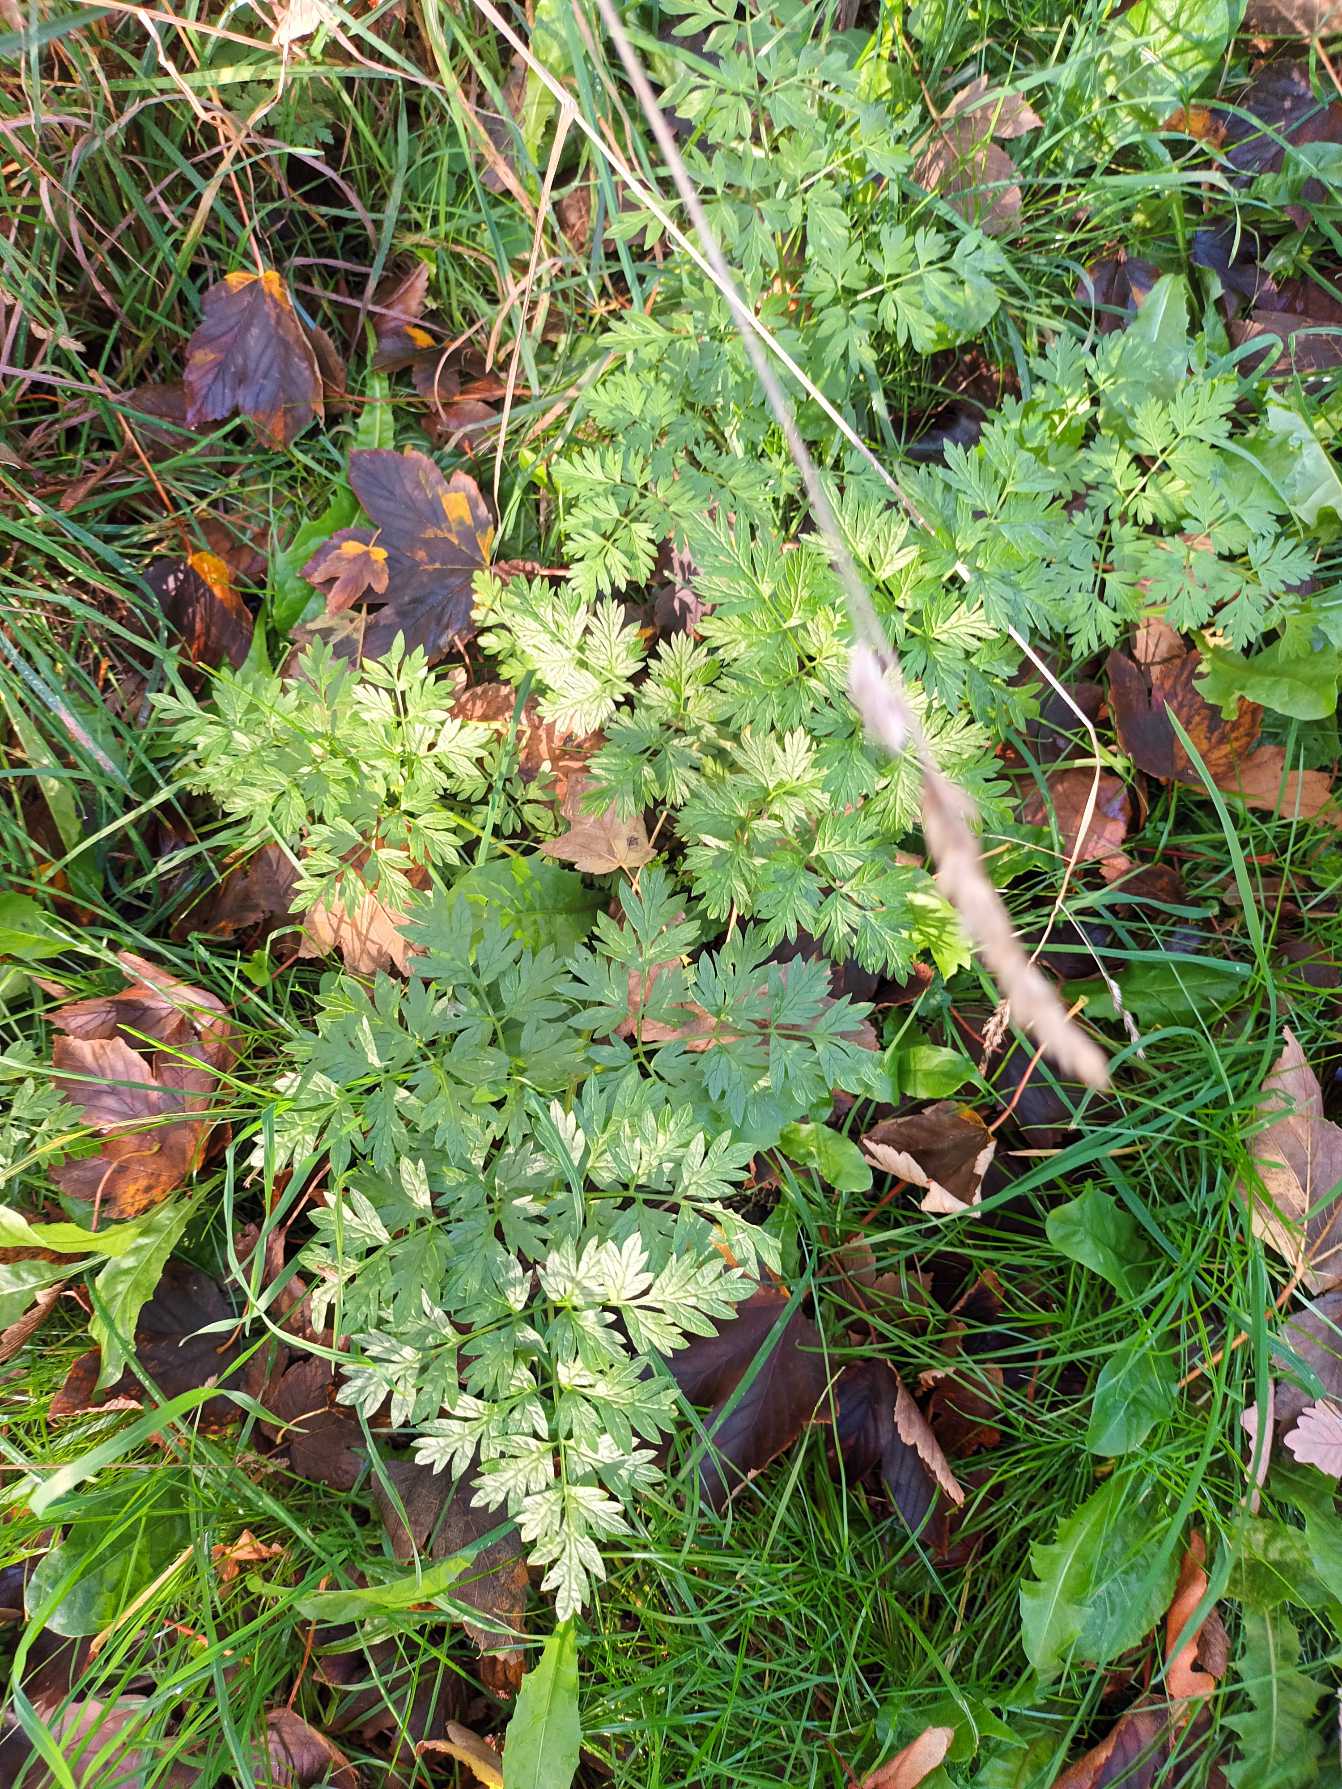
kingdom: Plantae
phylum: Tracheophyta
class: Magnoliopsida
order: Apiales
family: Apiaceae
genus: Anthriscus
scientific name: Anthriscus sylvestris
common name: Vild kørvel
